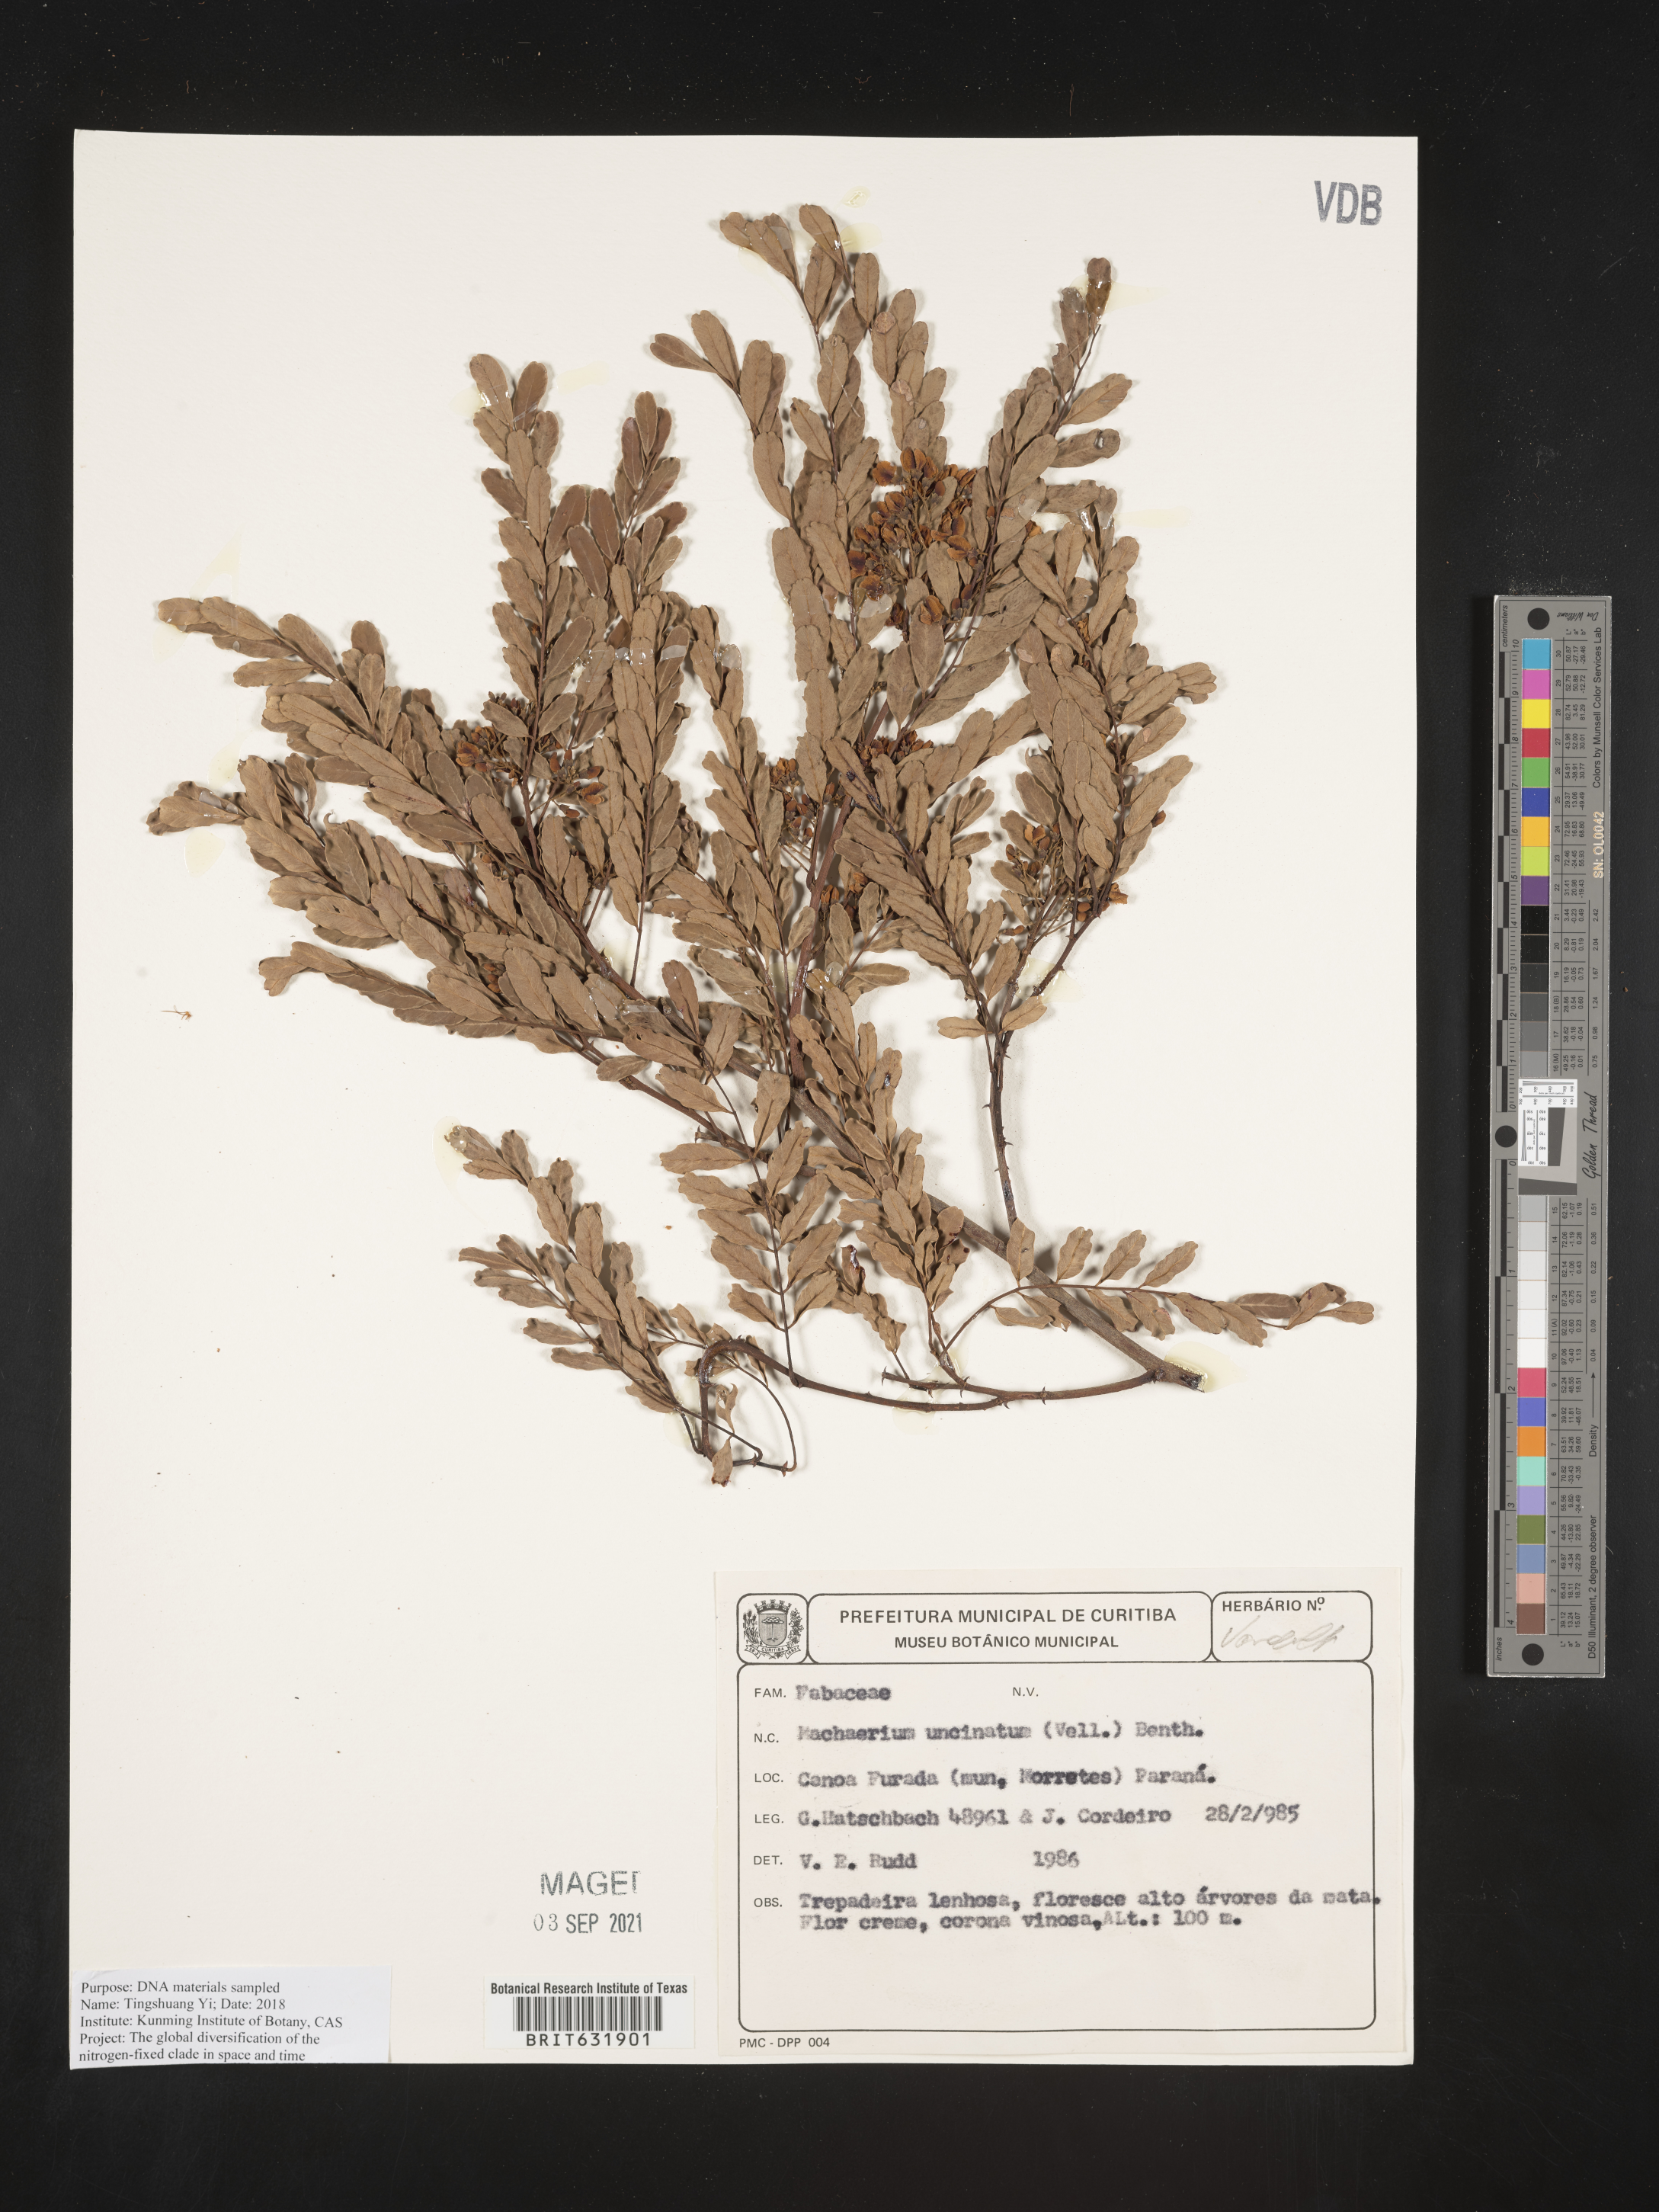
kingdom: Plantae
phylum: Tracheophyta
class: Magnoliopsida
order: Fabales
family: Fabaceae
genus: Machaerium
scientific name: Machaerium
